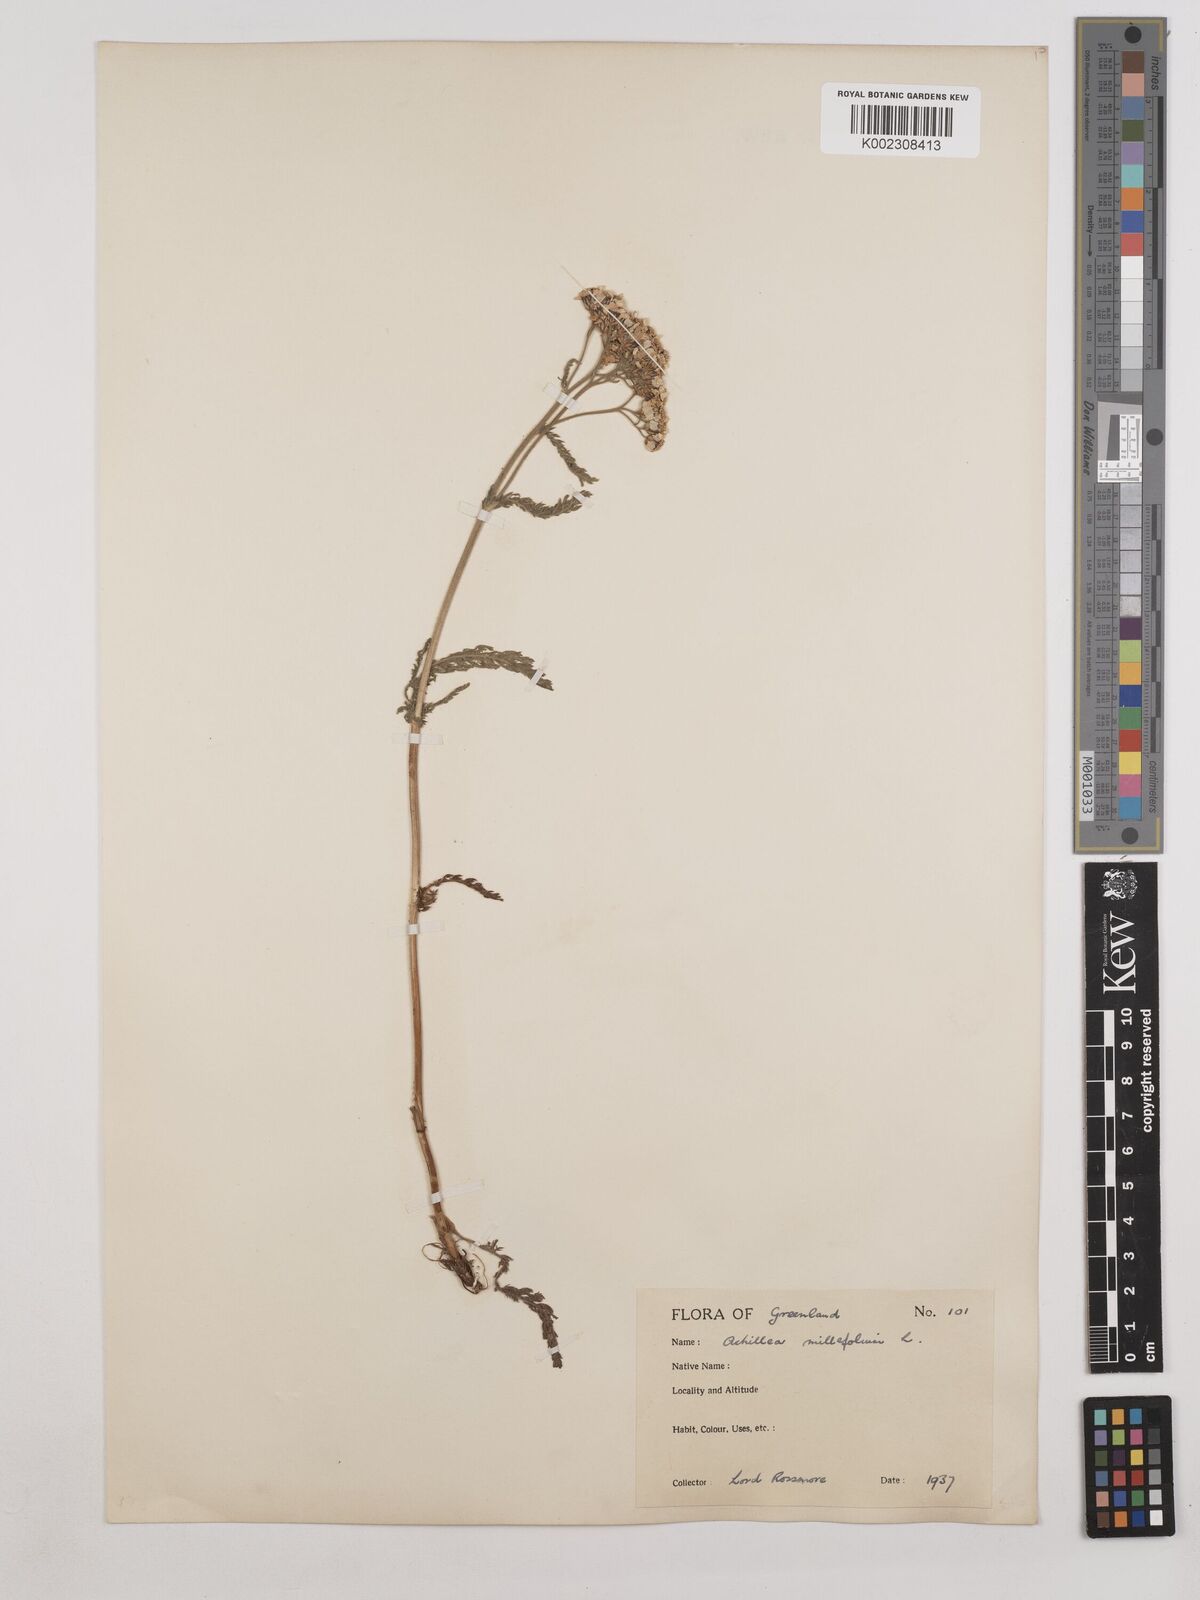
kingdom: Plantae
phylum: Tracheophyta
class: Magnoliopsida
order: Asterales
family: Asteraceae
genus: Achillea
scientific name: Achillea millefolium
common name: Yarrow
